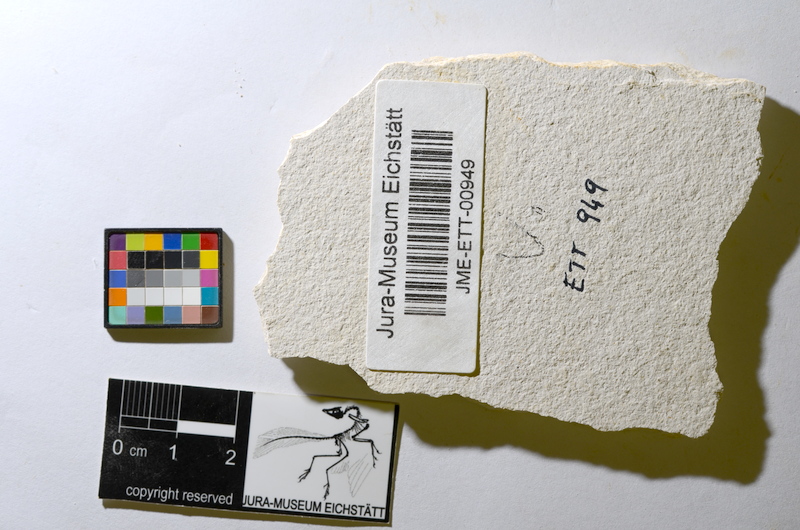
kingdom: Animalia
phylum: Chordata
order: Salmoniformes
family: Orthogonikleithridae
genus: Orthogonikleithrus
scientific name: Orthogonikleithrus hoelli
